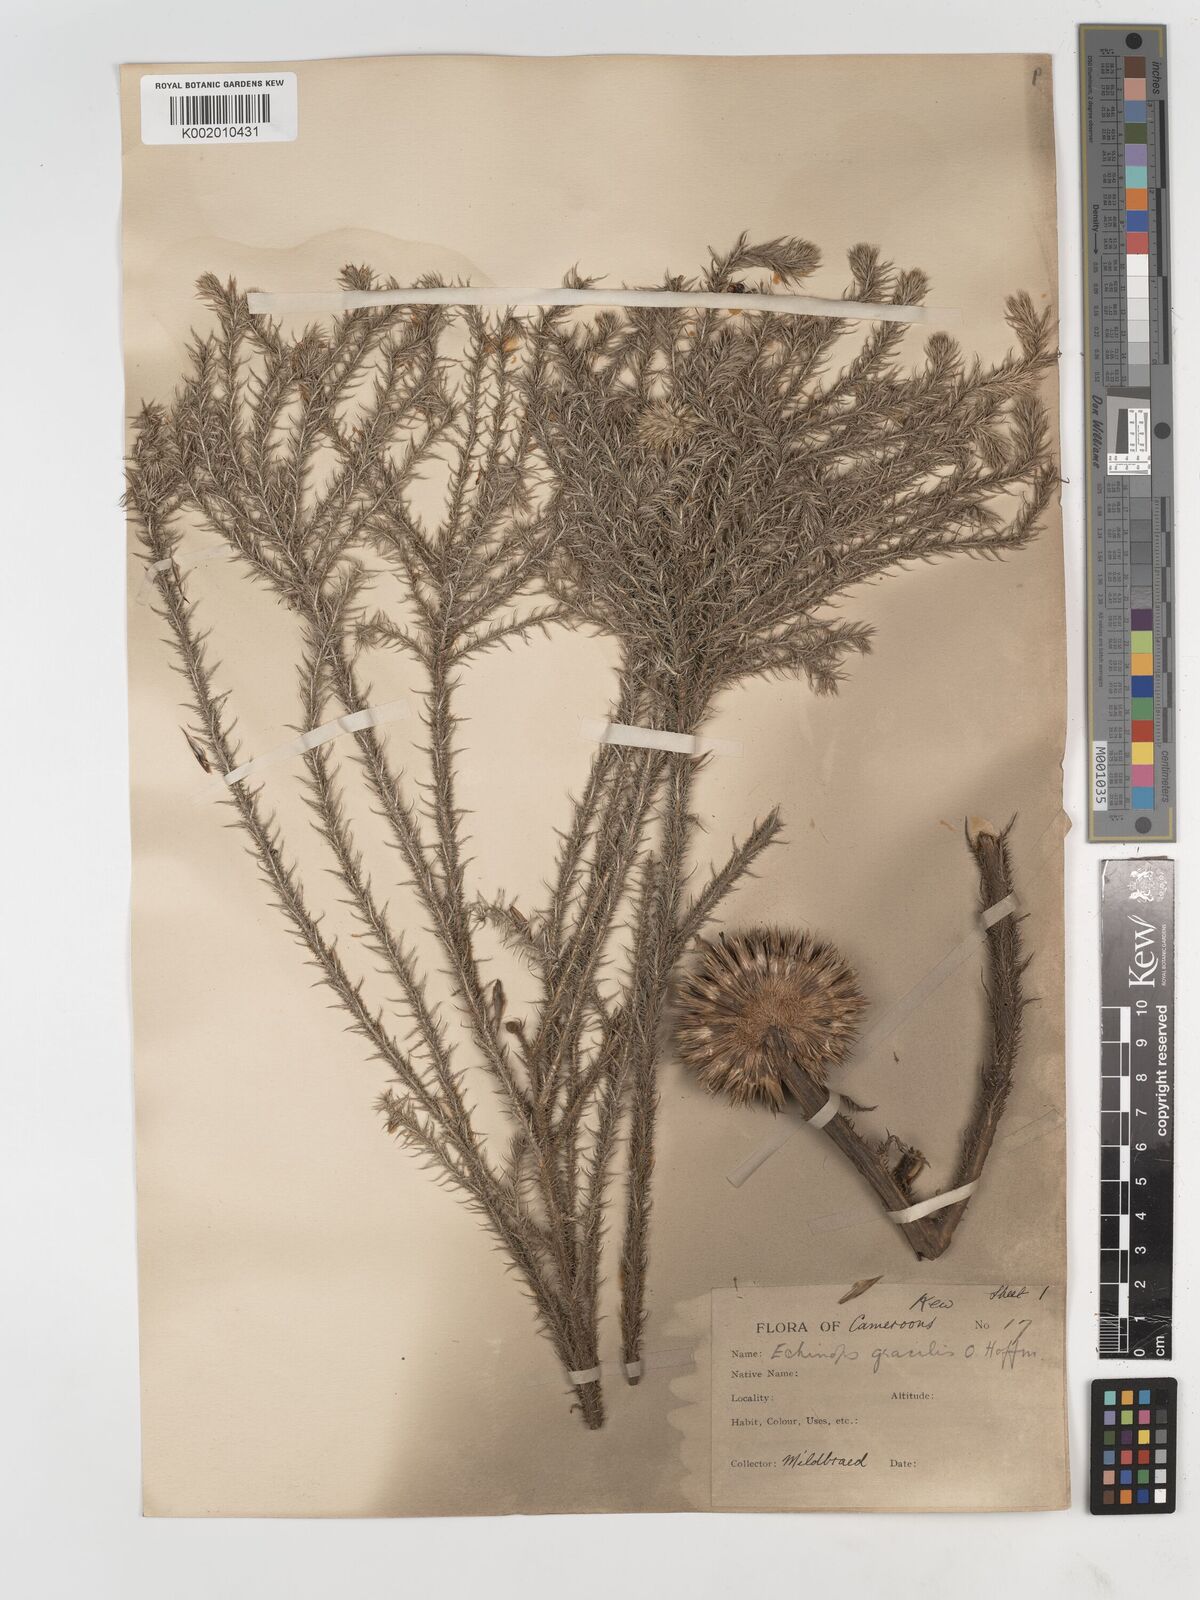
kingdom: Plantae
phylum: Tracheophyta
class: Magnoliopsida
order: Asterales
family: Asteraceae
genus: Echinops
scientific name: Echinops gracilis
